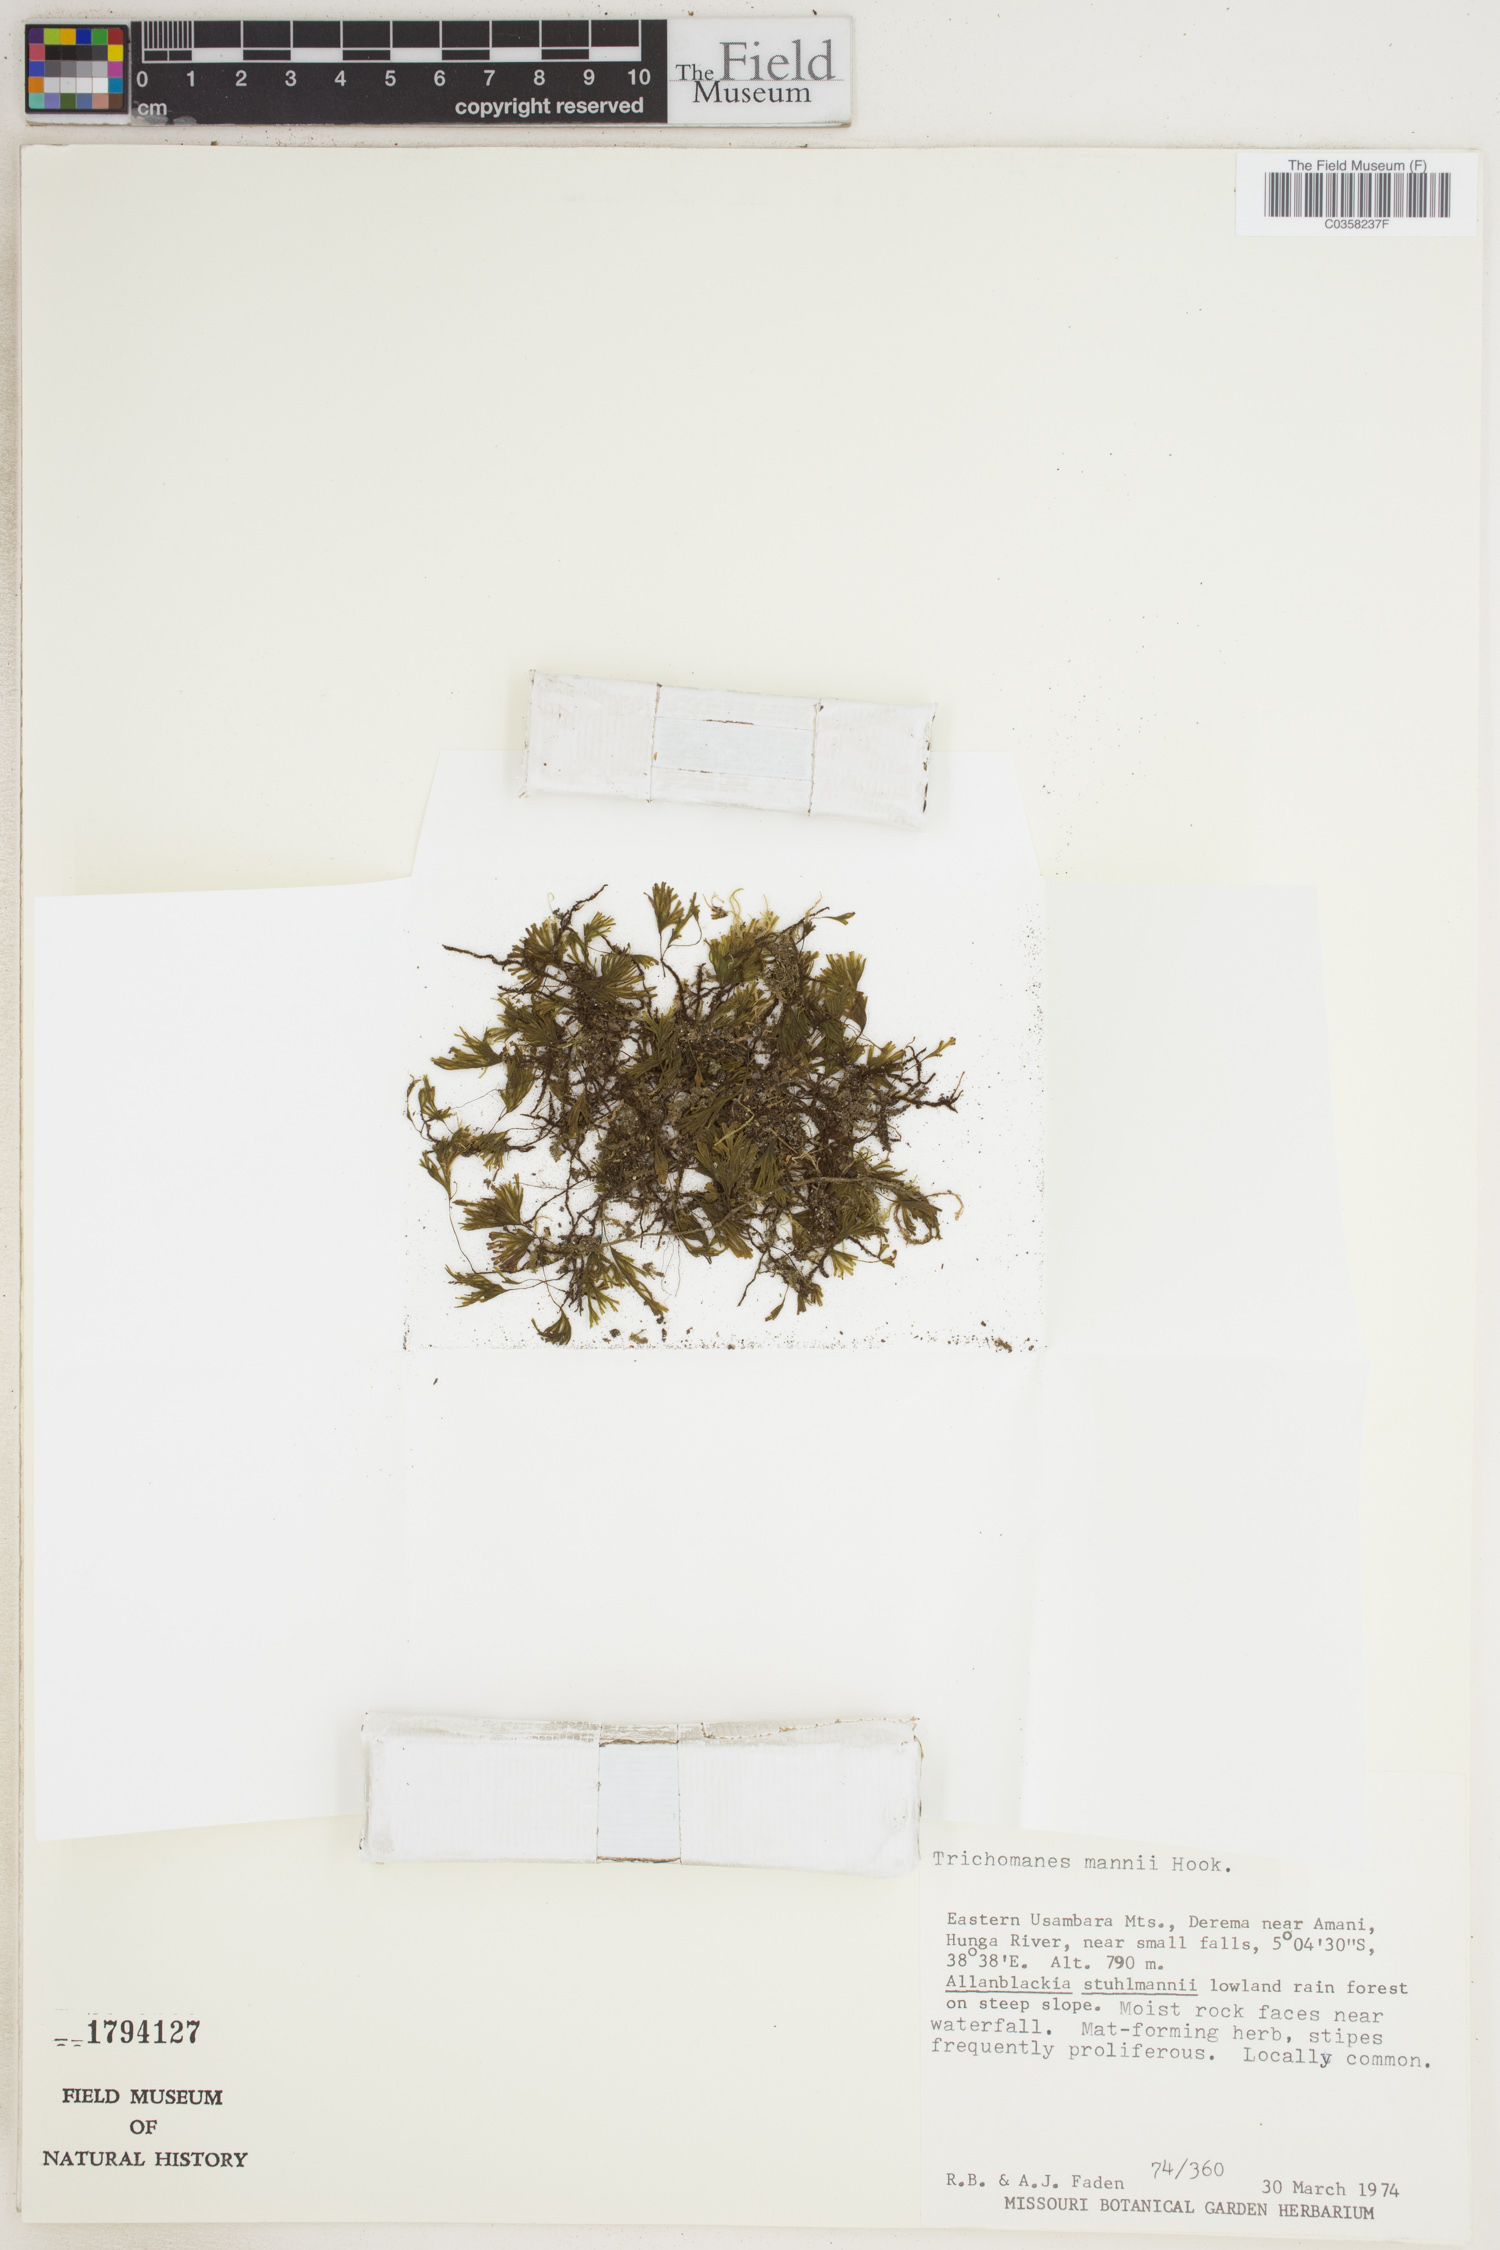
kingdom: Plantae
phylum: Tracheophyta
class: Polypodiopsida
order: Hymenophyllales
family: Hymenophyllaceae
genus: Crepidomanes
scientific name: Crepidomanes parvulum
